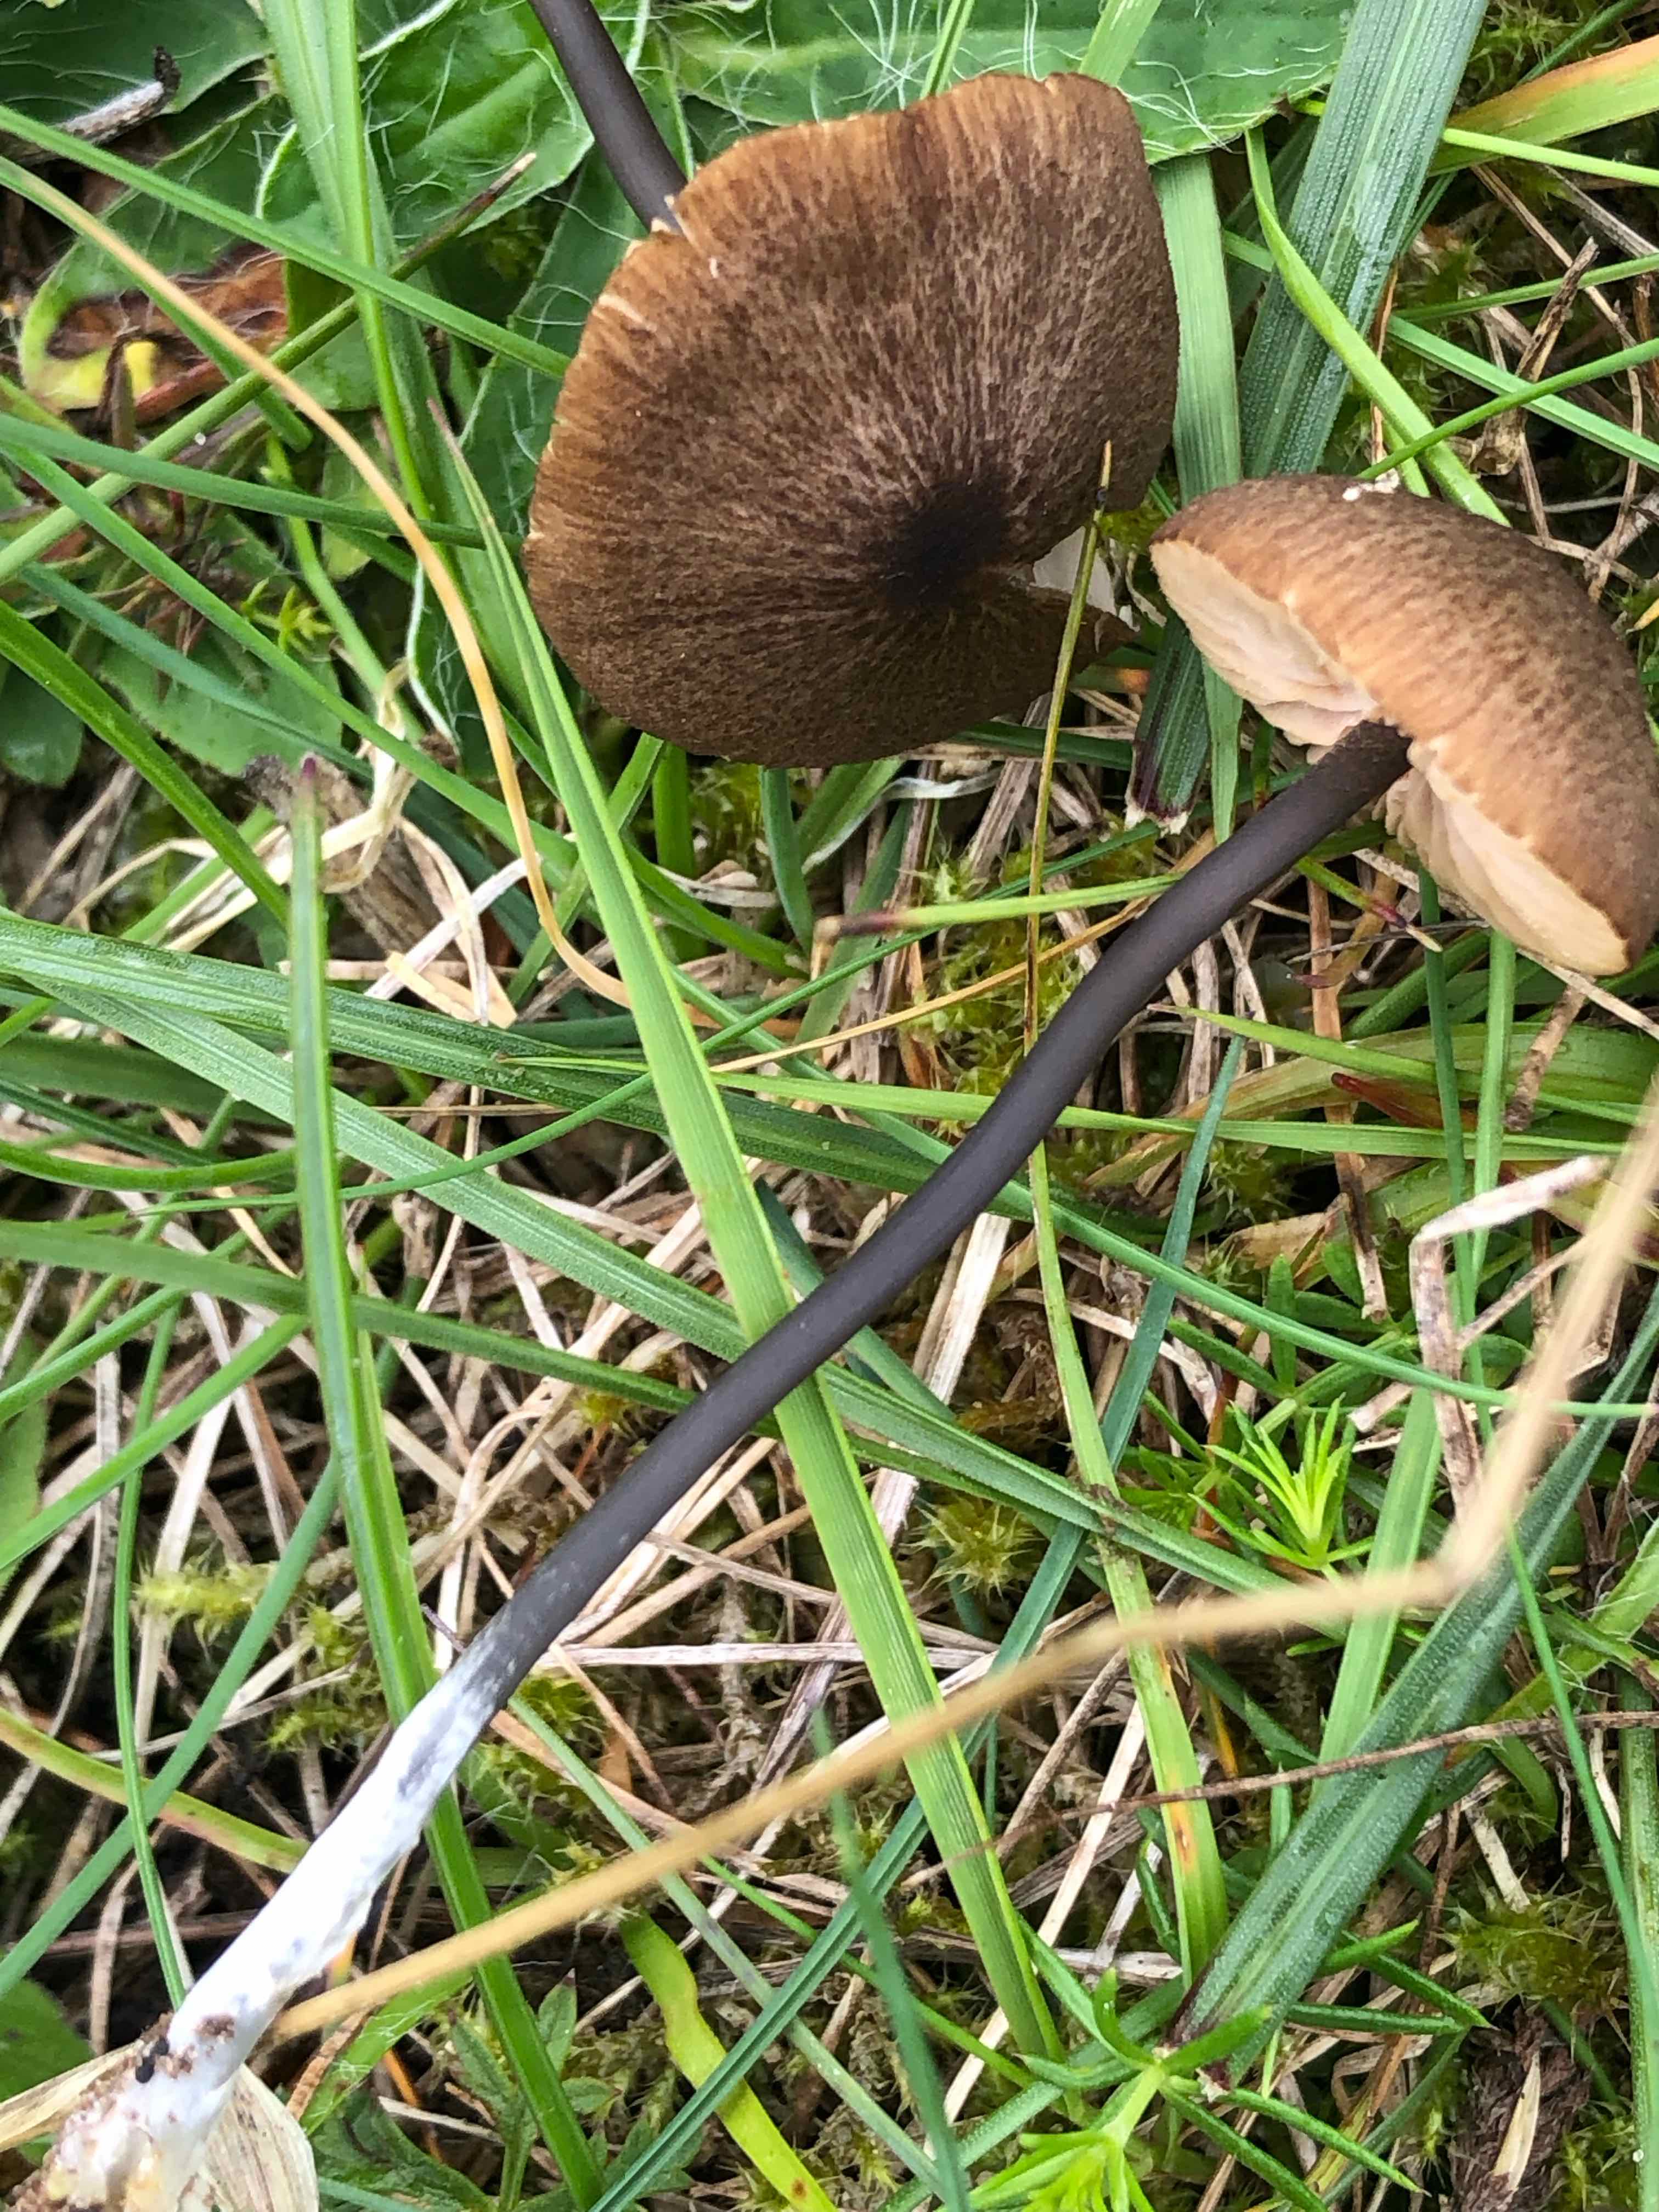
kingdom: Fungi
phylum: Basidiomycota
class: Agaricomycetes
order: Agaricales
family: Entolomataceae
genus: Entoloma
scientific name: Entoloma asprellum
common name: ru rødblad
